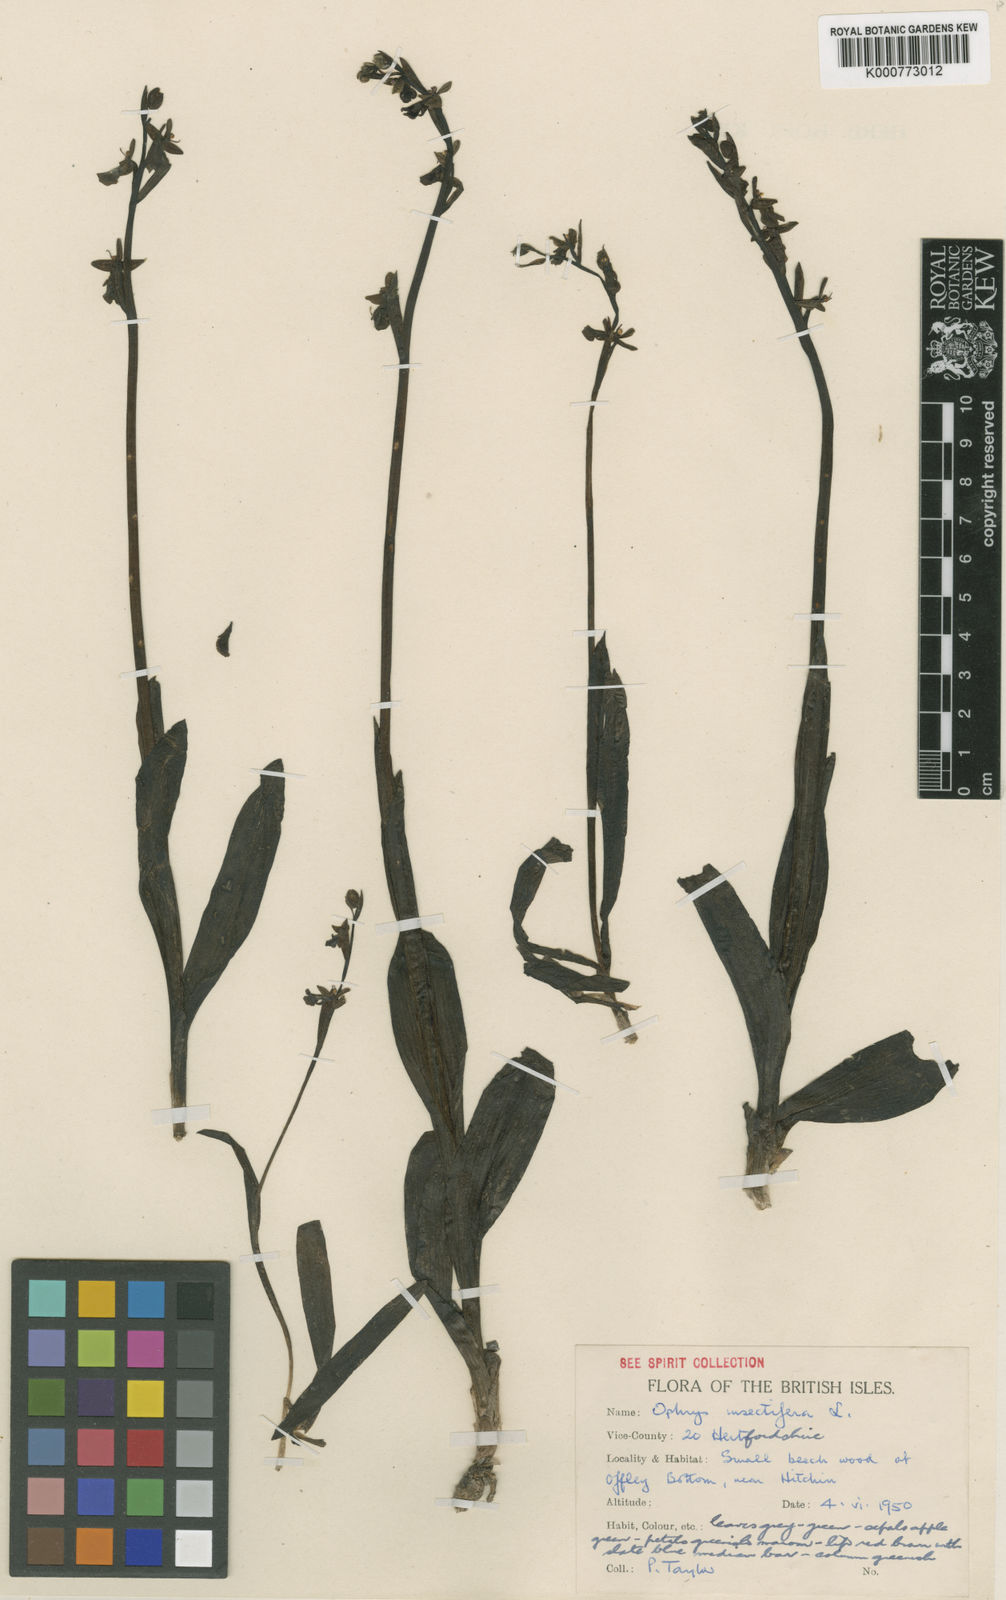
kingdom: Plantae
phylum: Tracheophyta
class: Liliopsida
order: Asparagales
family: Orchidaceae
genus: Ophrys
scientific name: Ophrys insectifera
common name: Fly orchid
